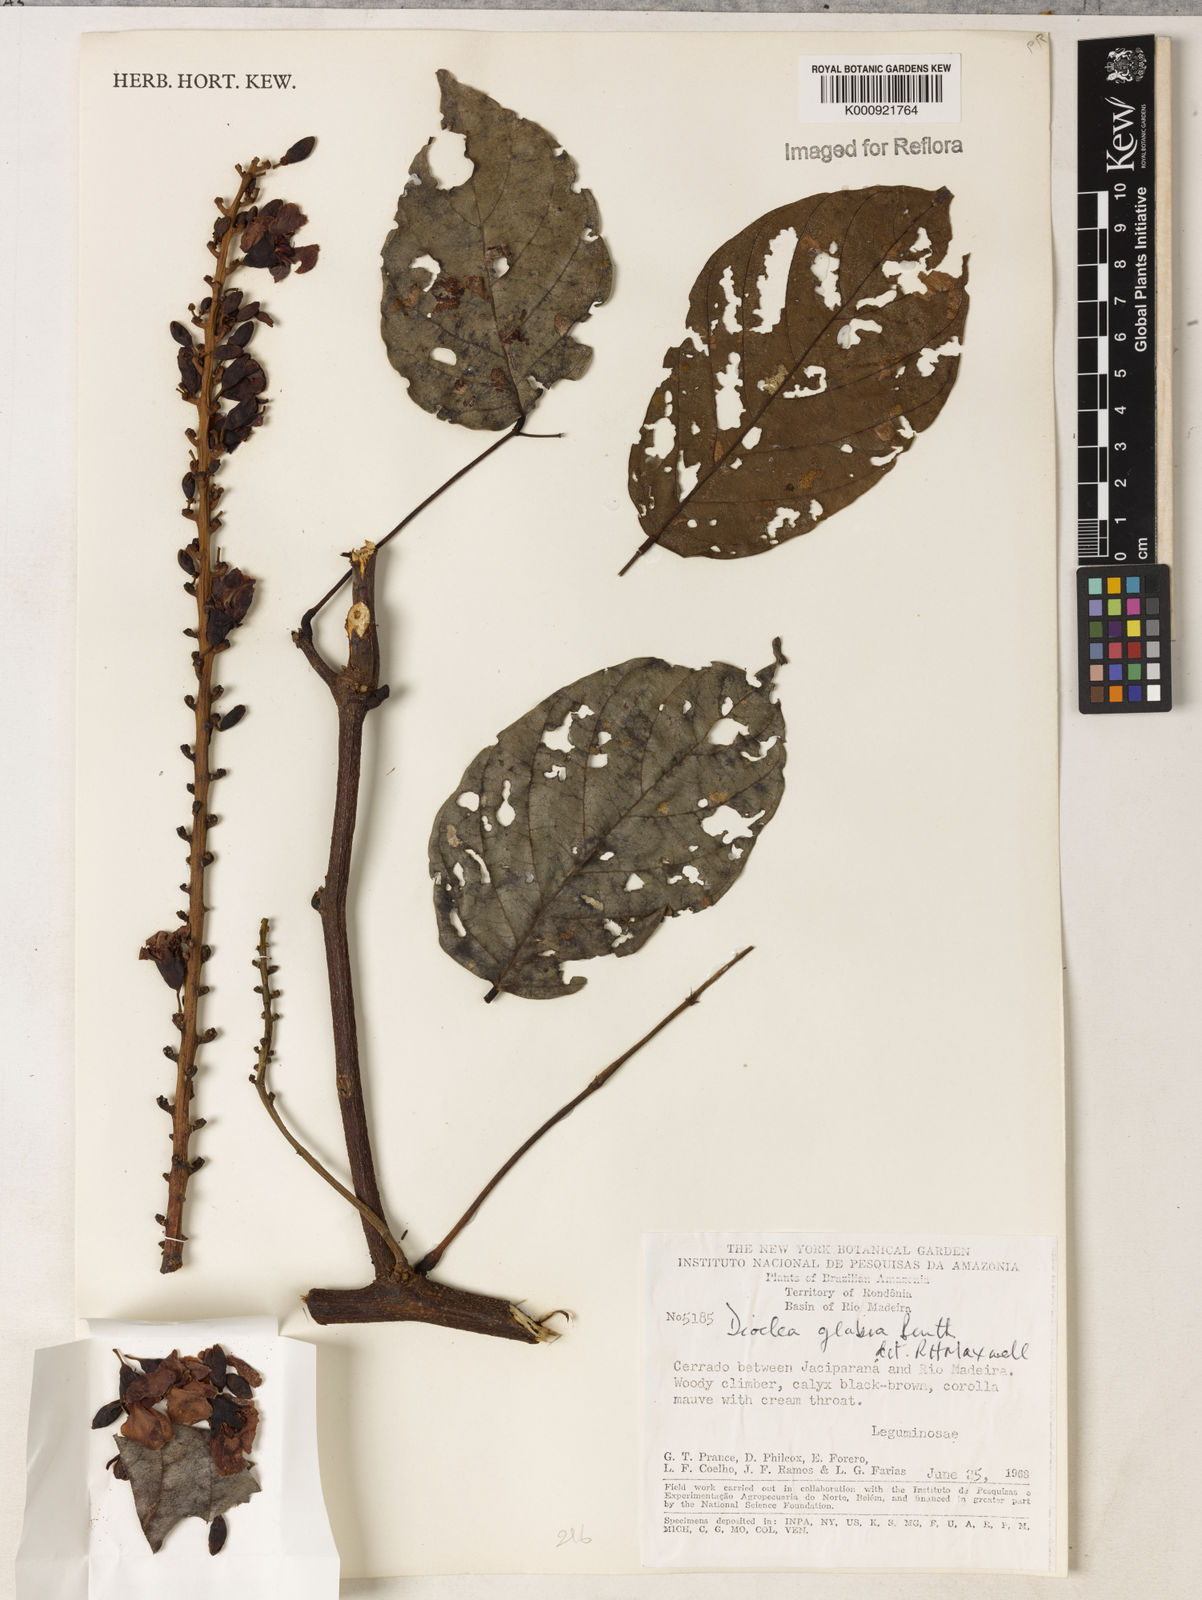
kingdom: Plantae
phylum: Tracheophyta
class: Magnoliopsida
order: Fabales
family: Fabaceae
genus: Macropsychanthus
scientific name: Macropsychanthus glaber
